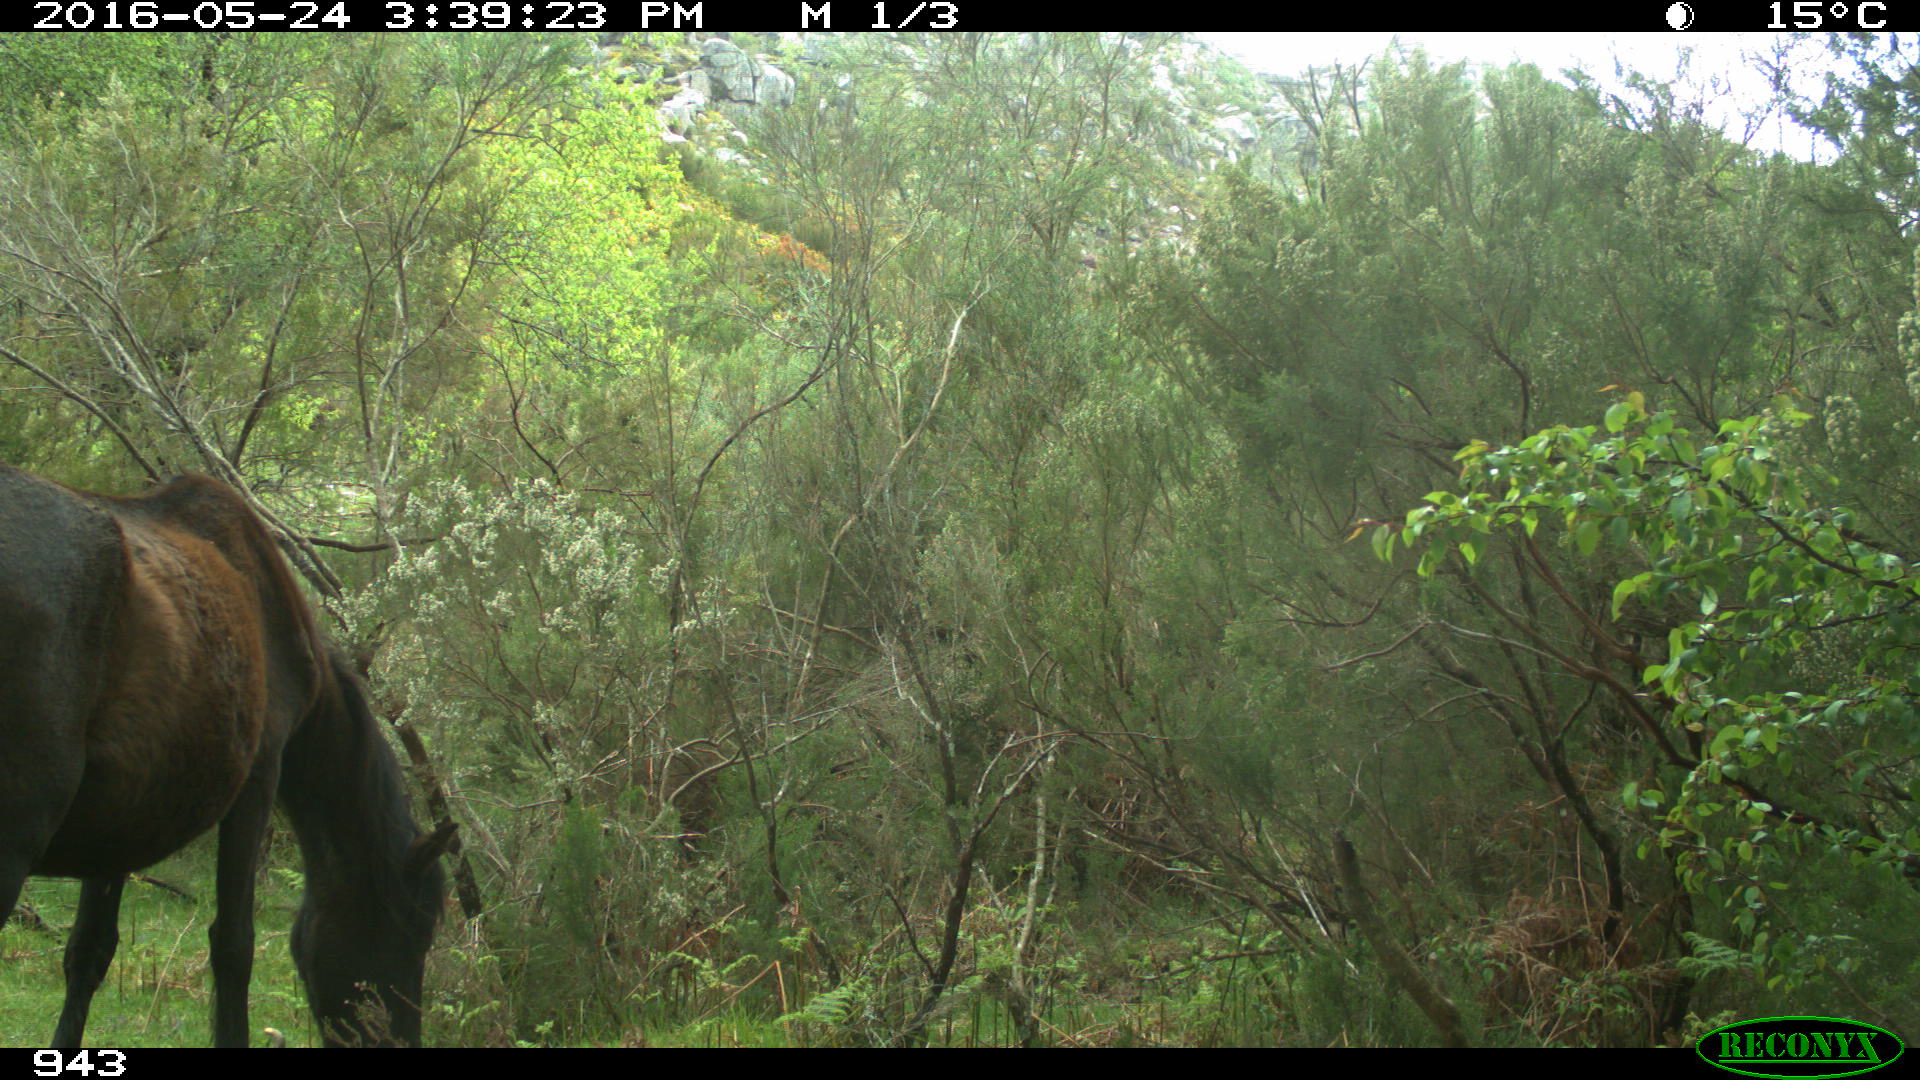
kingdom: Animalia
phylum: Chordata
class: Mammalia
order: Perissodactyla
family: Equidae
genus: Equus
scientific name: Equus caballus
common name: Horse
